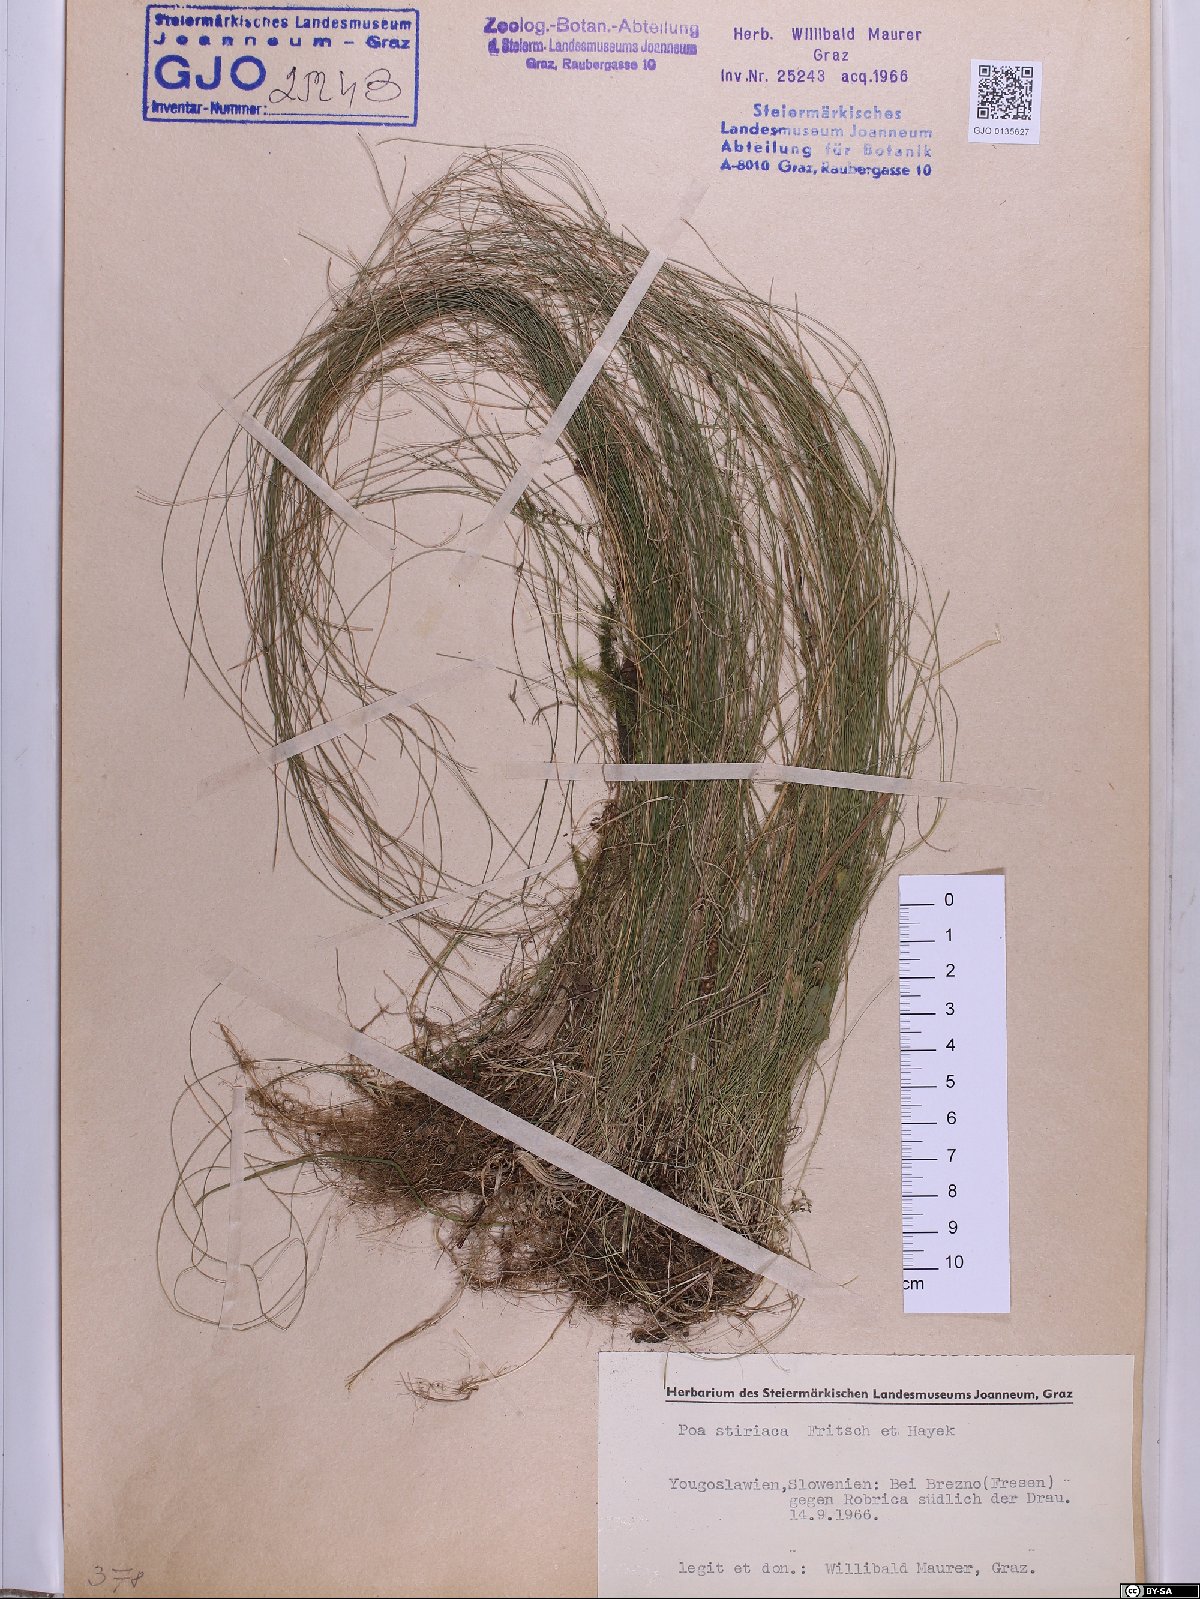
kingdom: Plantae
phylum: Tracheophyta
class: Liliopsida
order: Poales
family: Poaceae
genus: Poa
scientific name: Poa stiriaca
